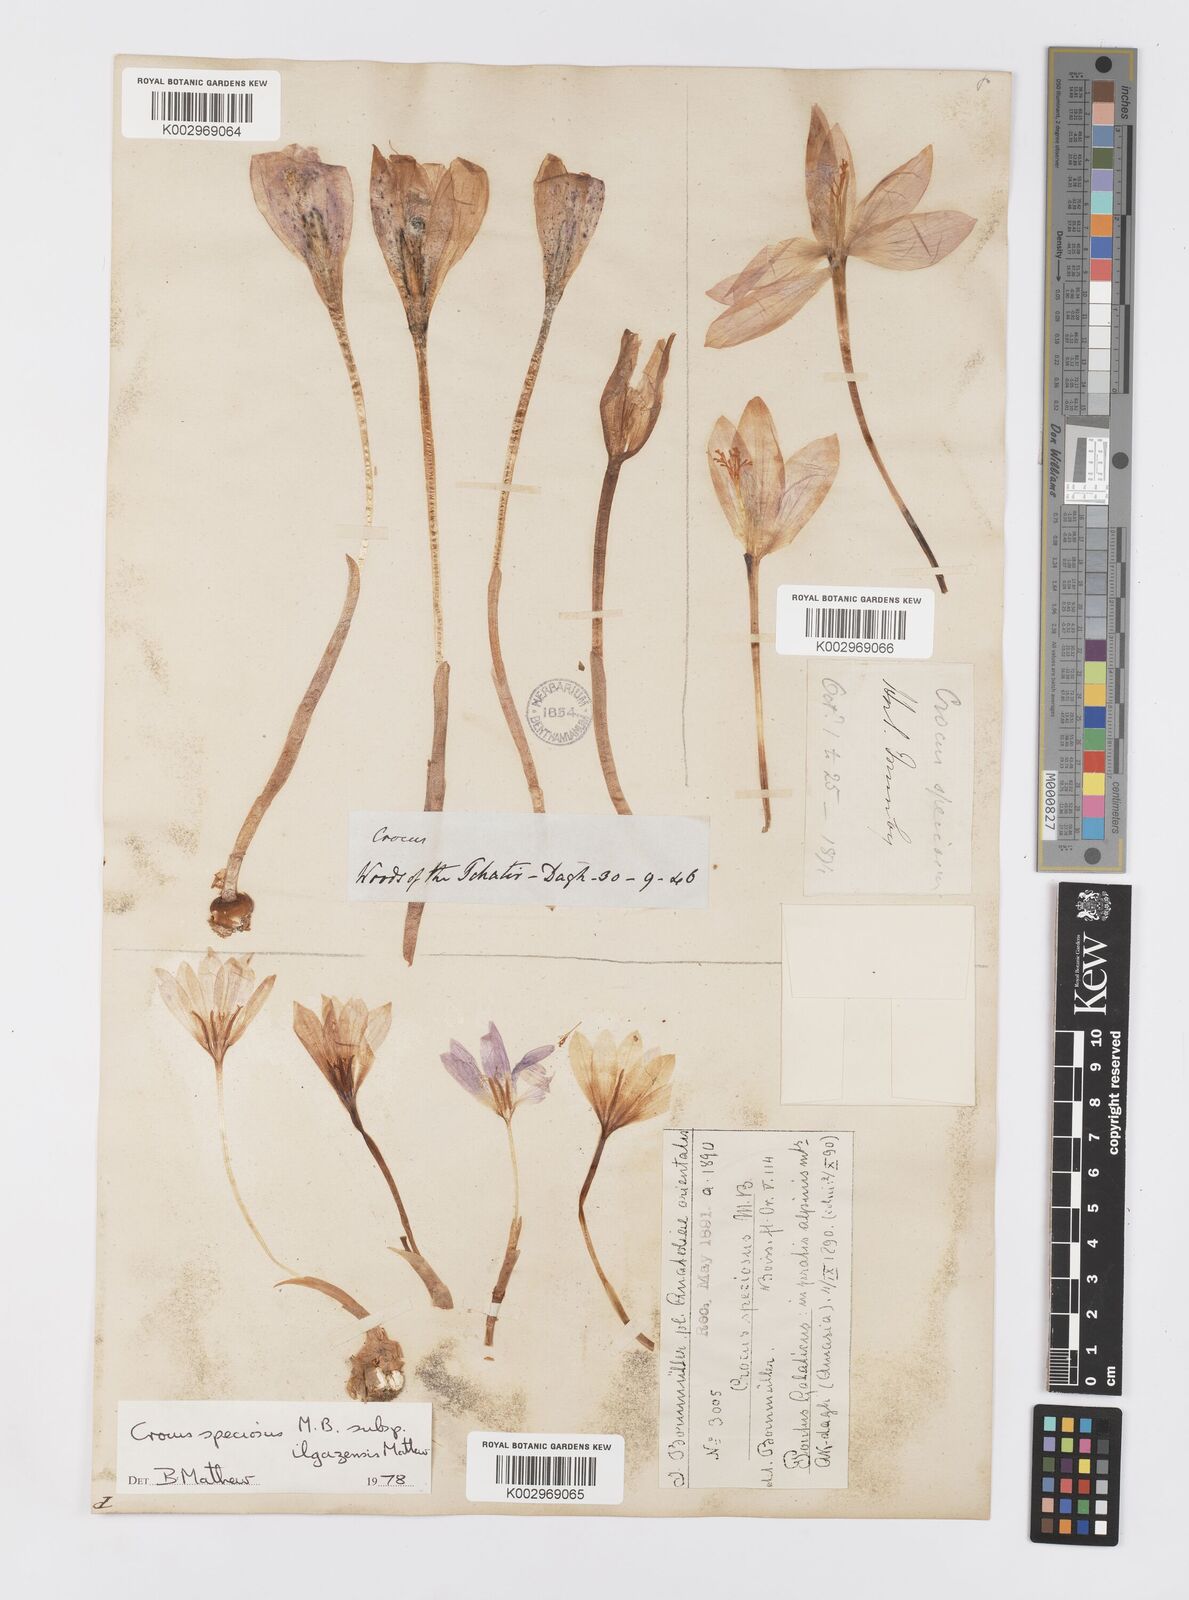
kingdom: Plantae
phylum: Tracheophyta
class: Liliopsida
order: Asparagales
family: Iridaceae
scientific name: Iridaceae
